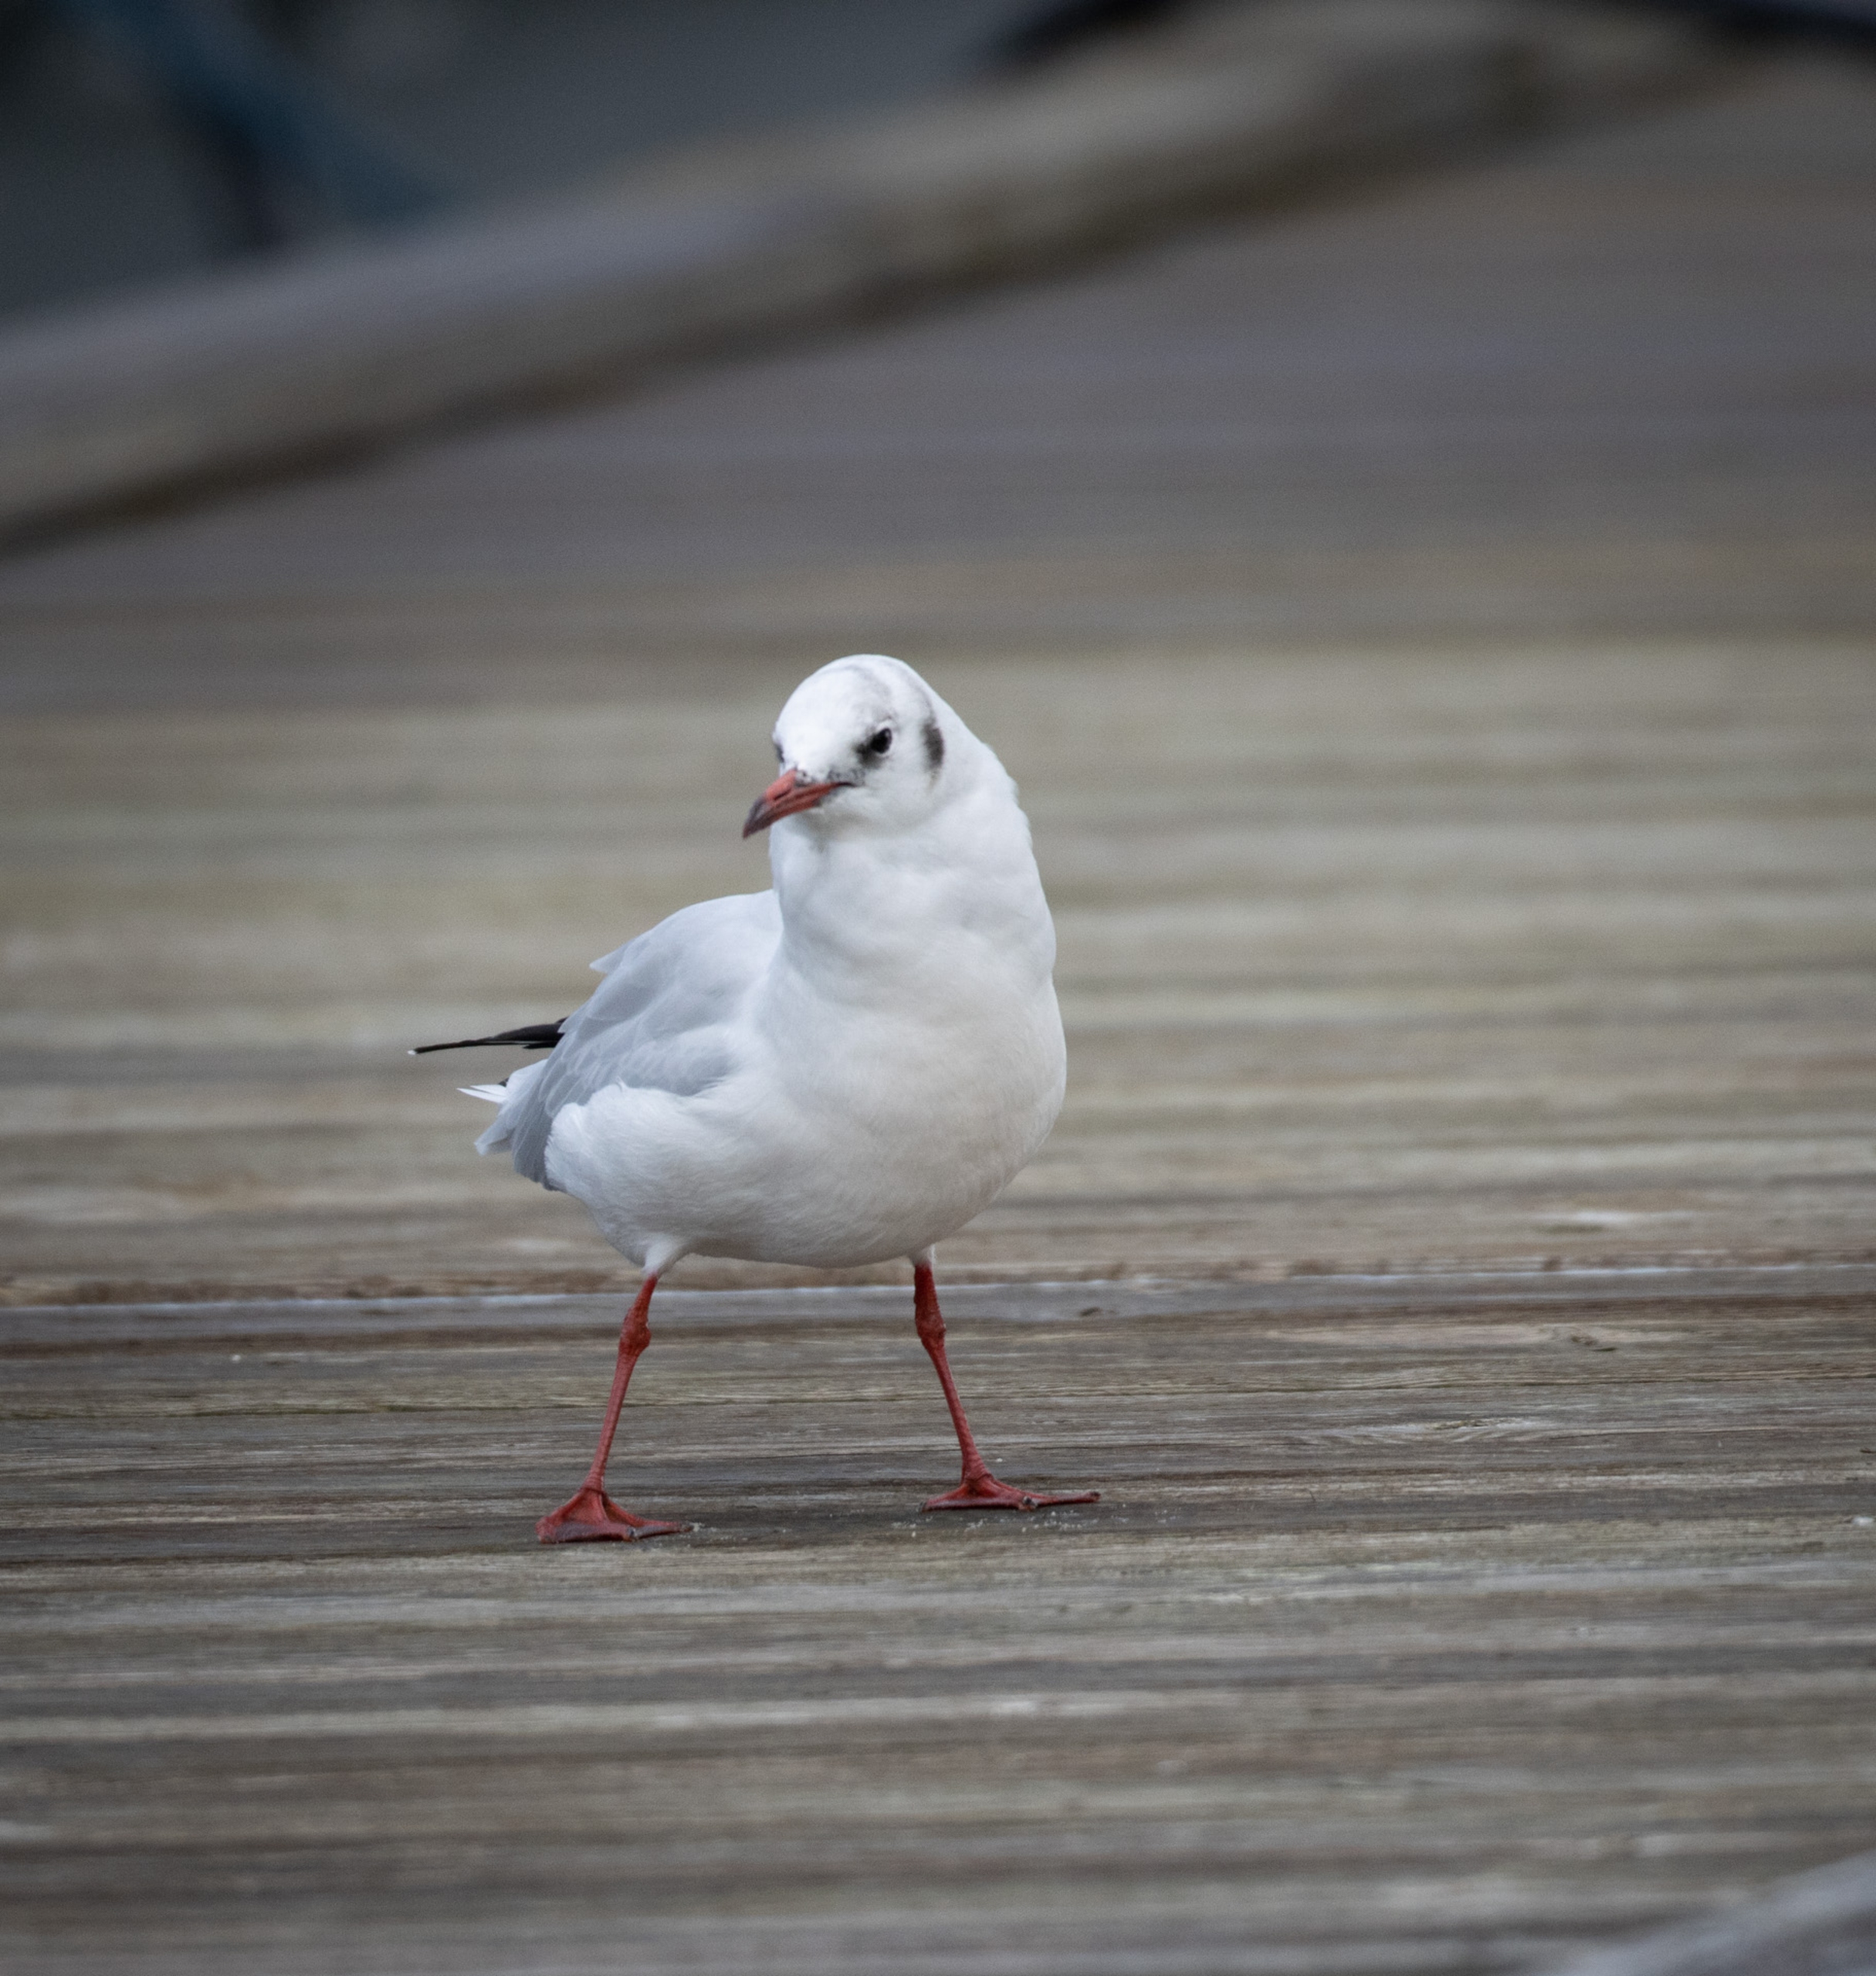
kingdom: Animalia
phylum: Chordata
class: Aves
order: Charadriiformes
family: Laridae
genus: Chroicocephalus
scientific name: Chroicocephalus ridibundus
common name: Hættemåge
